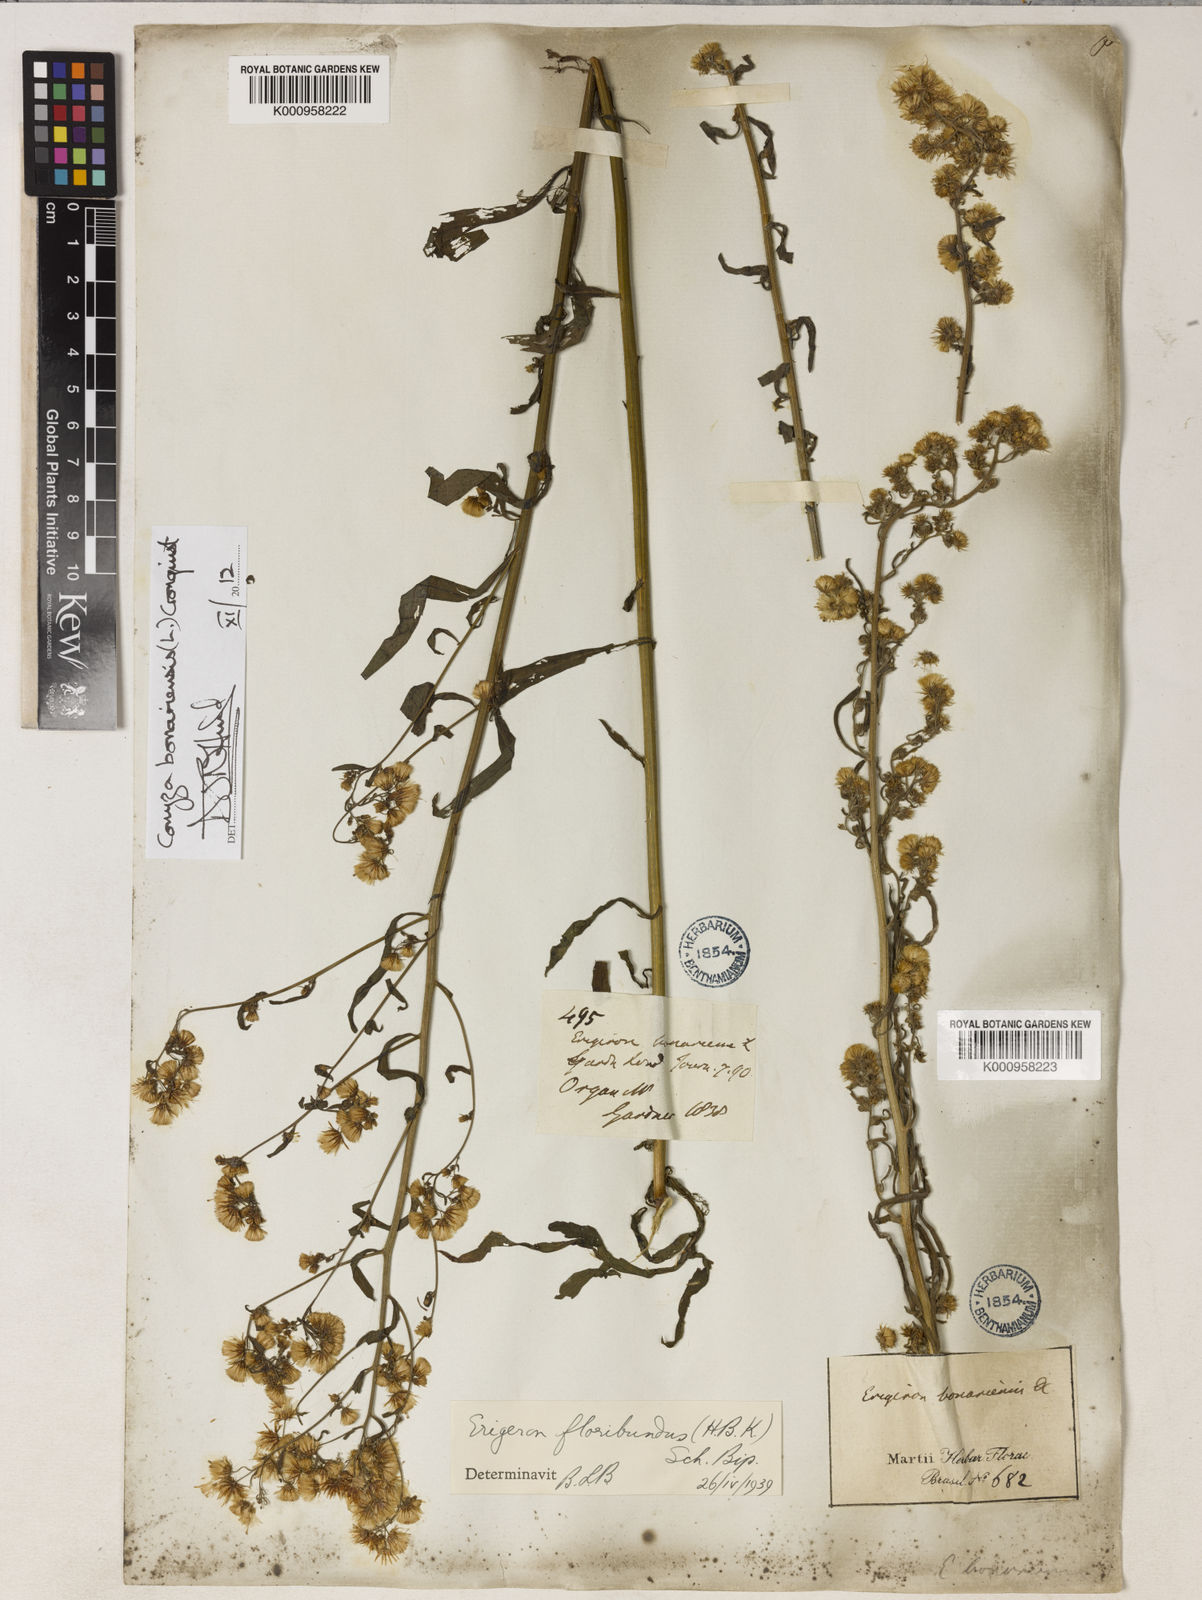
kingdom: Plantae
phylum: Tracheophyta
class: Magnoliopsida
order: Asterales
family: Asteraceae
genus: Erigeron
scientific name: Erigeron bonariensis
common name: Argentine fleabane
